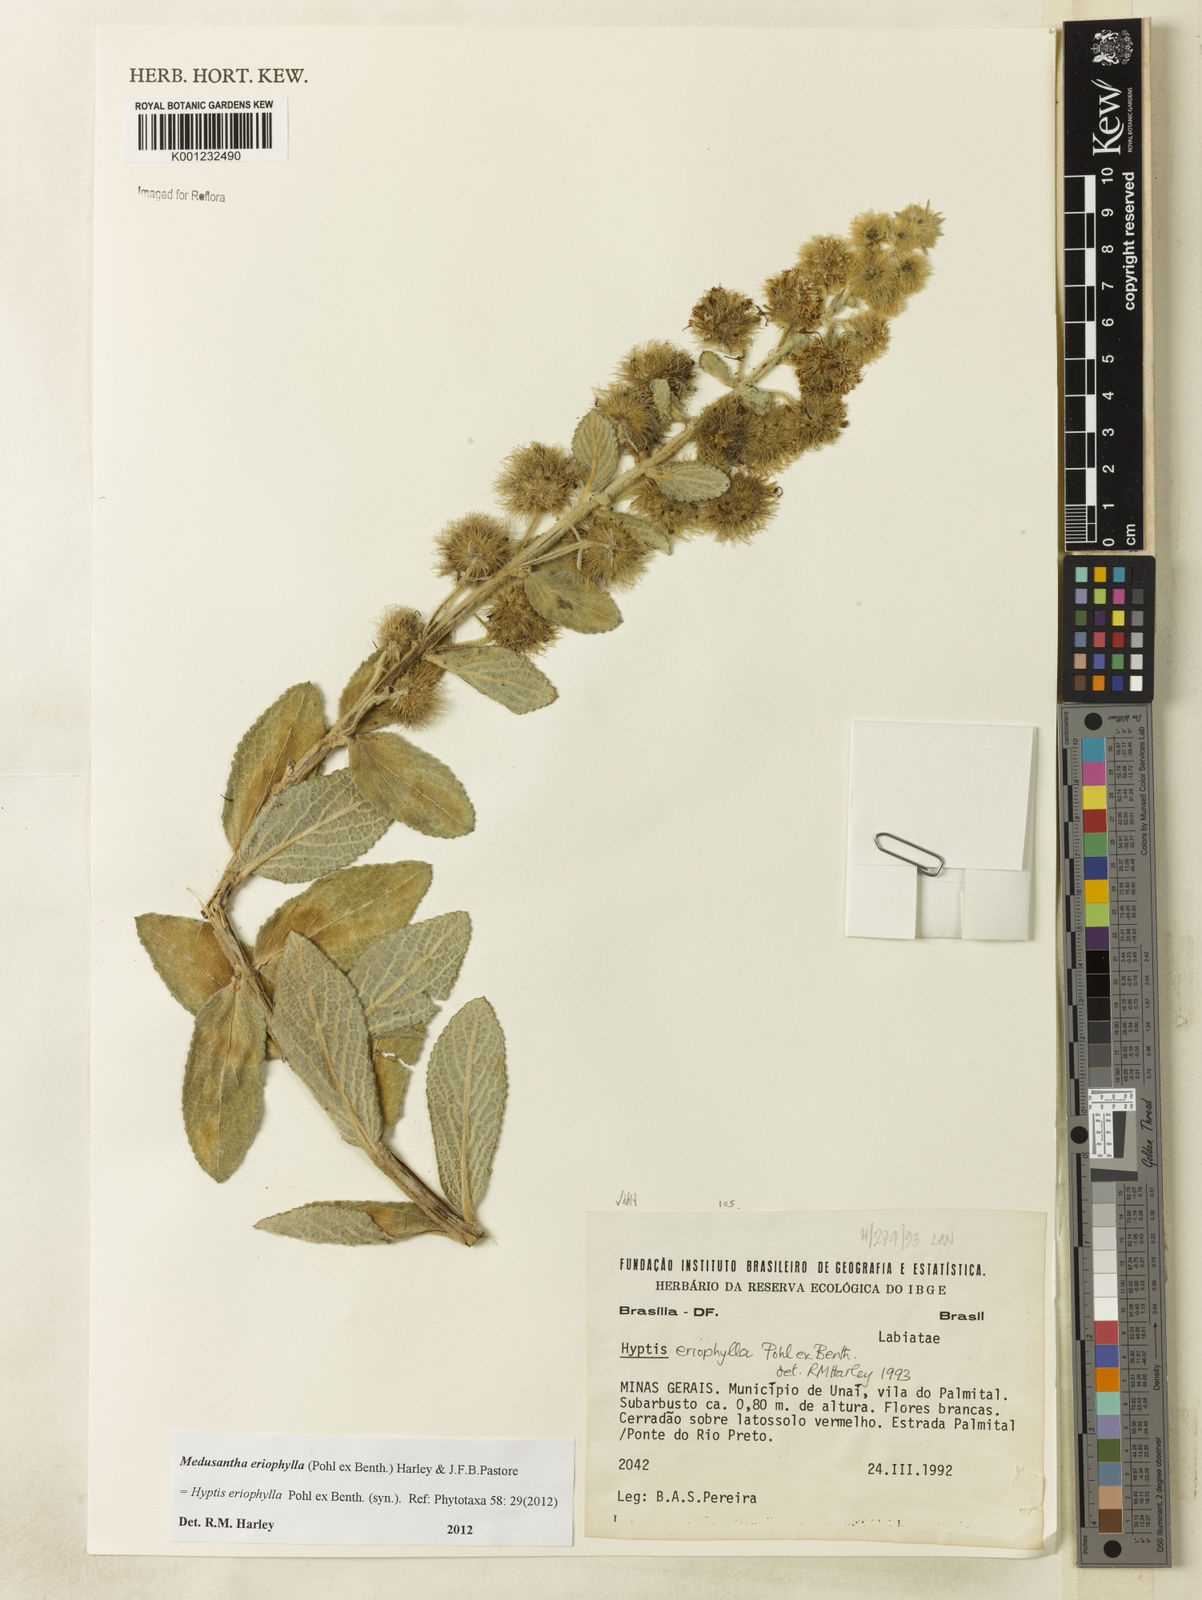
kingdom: Plantae
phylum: Tracheophyta
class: Magnoliopsida
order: Lamiales
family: Lamiaceae
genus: Medusantha
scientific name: Medusantha eriophylla
